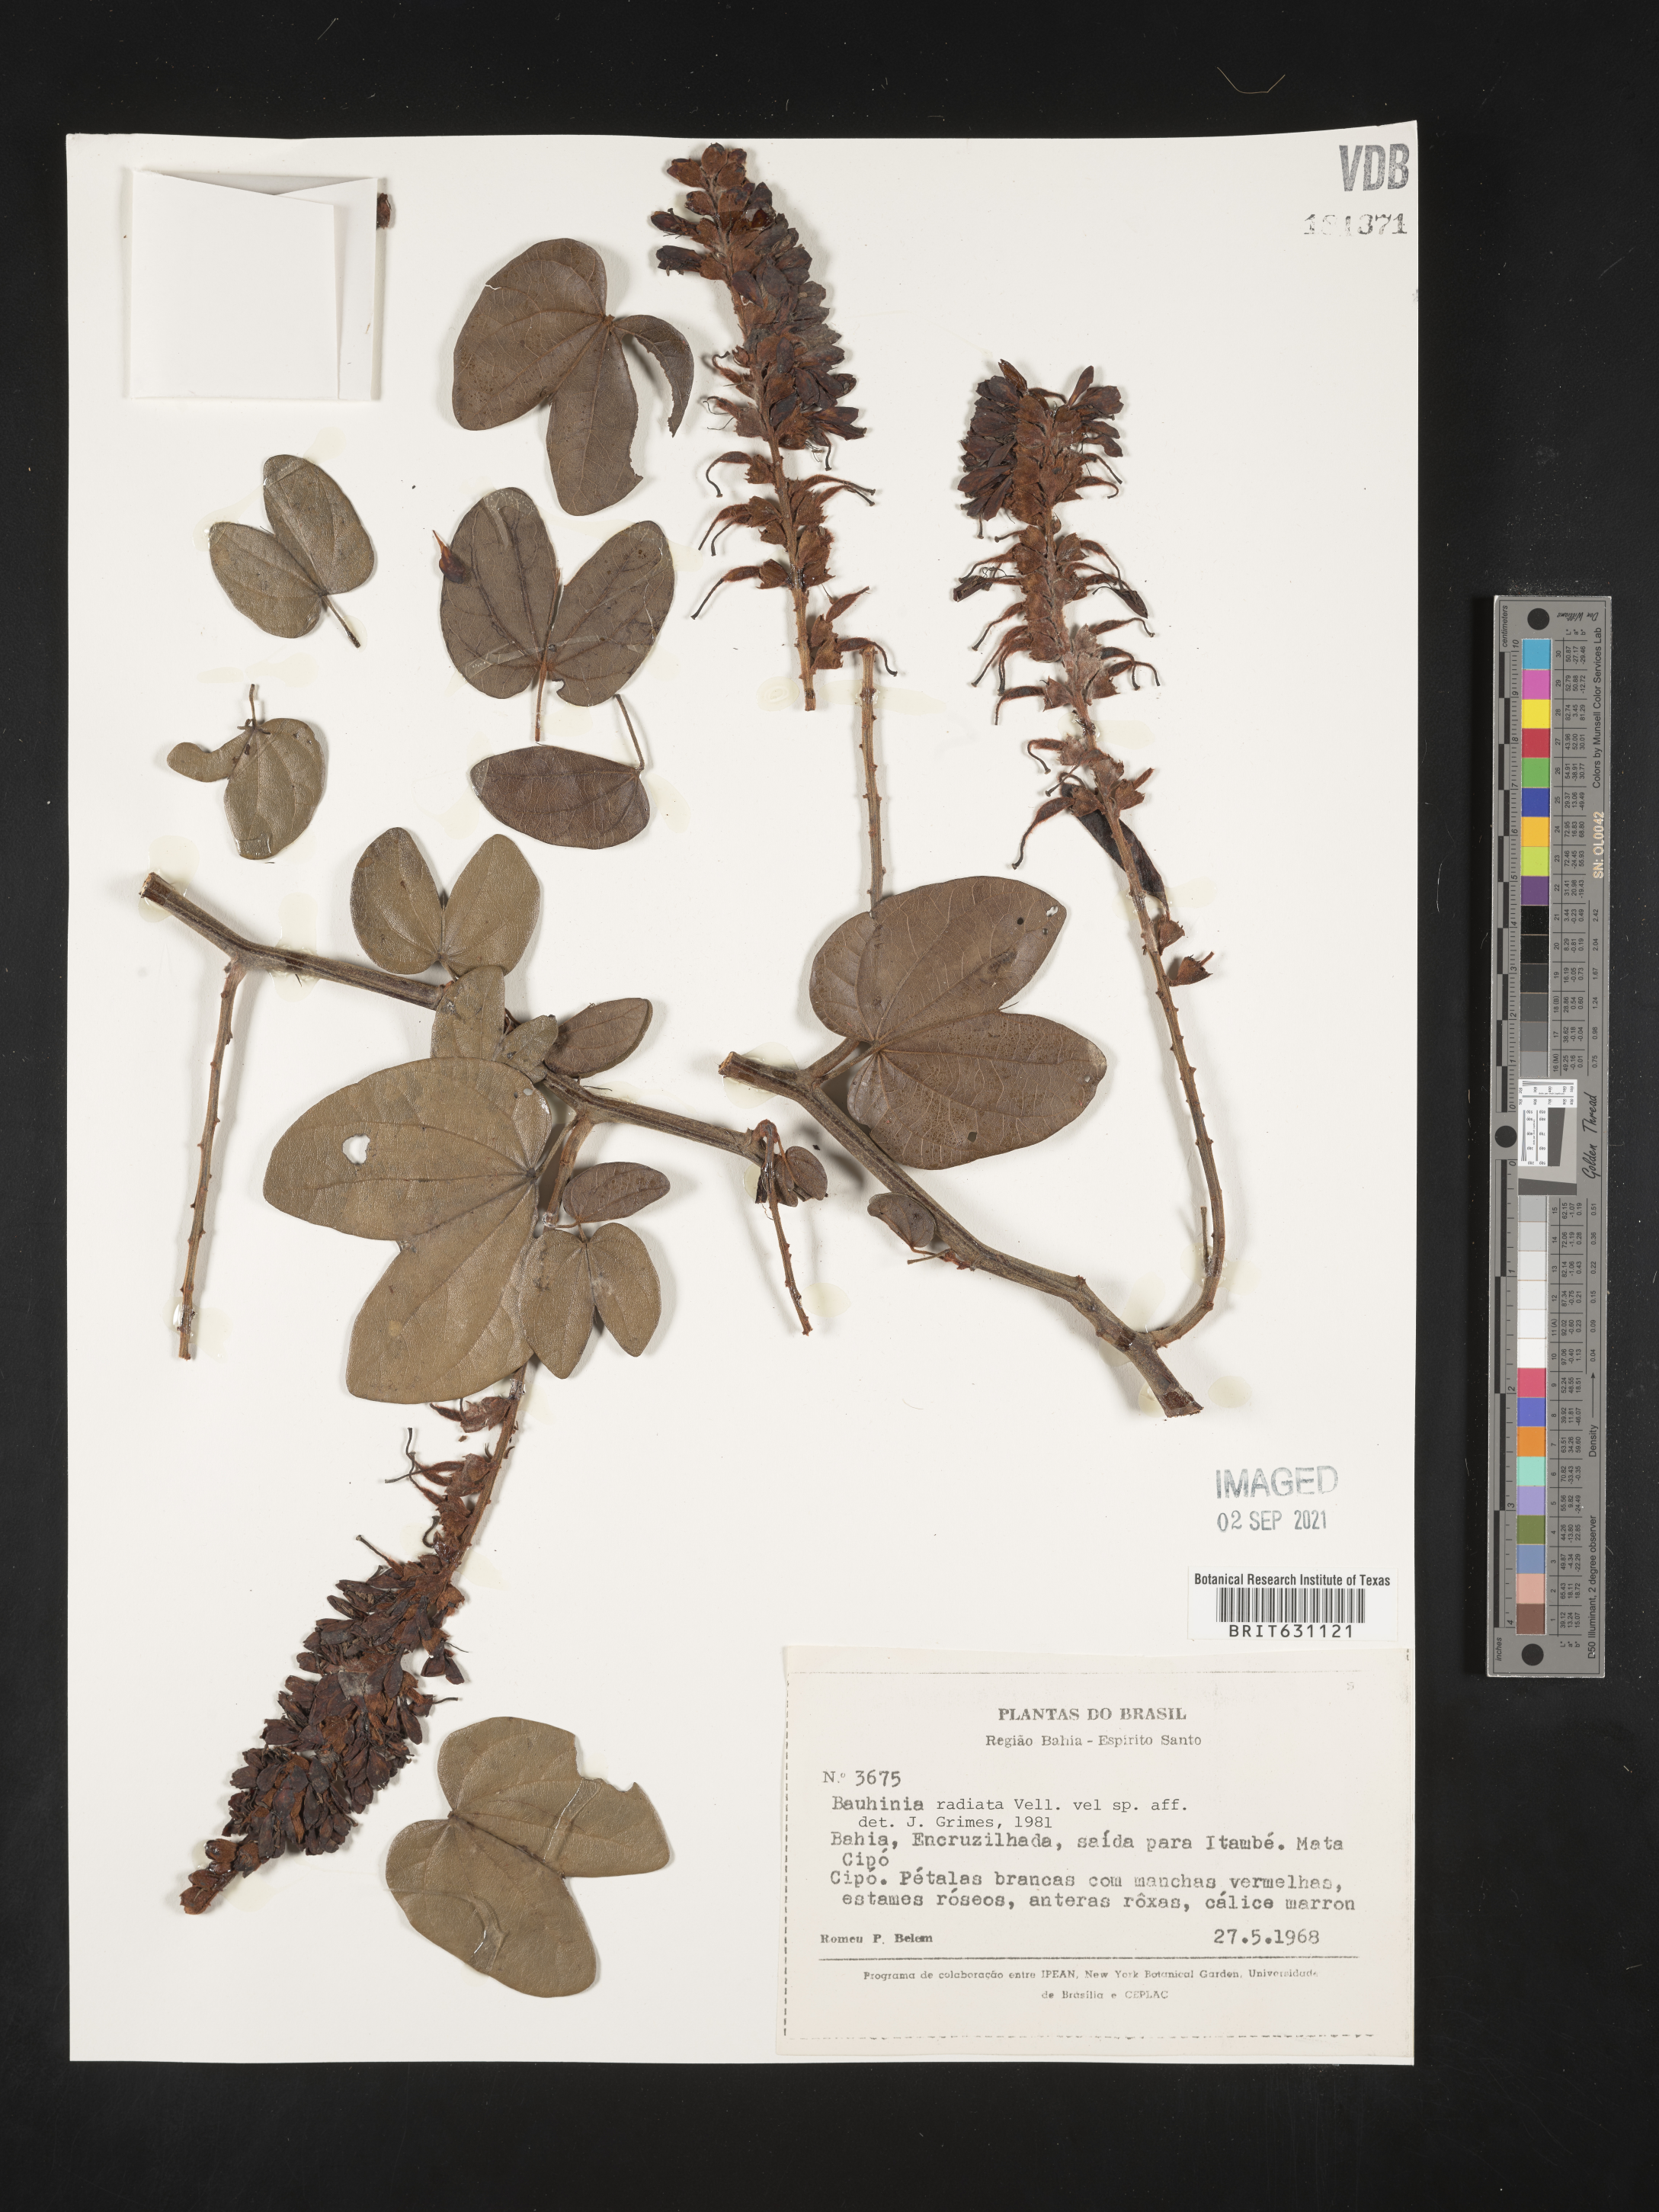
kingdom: Plantae
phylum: Tracheophyta
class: Magnoliopsida
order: Fabales
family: Fabaceae
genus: Bauhinia
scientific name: Bauhinia
